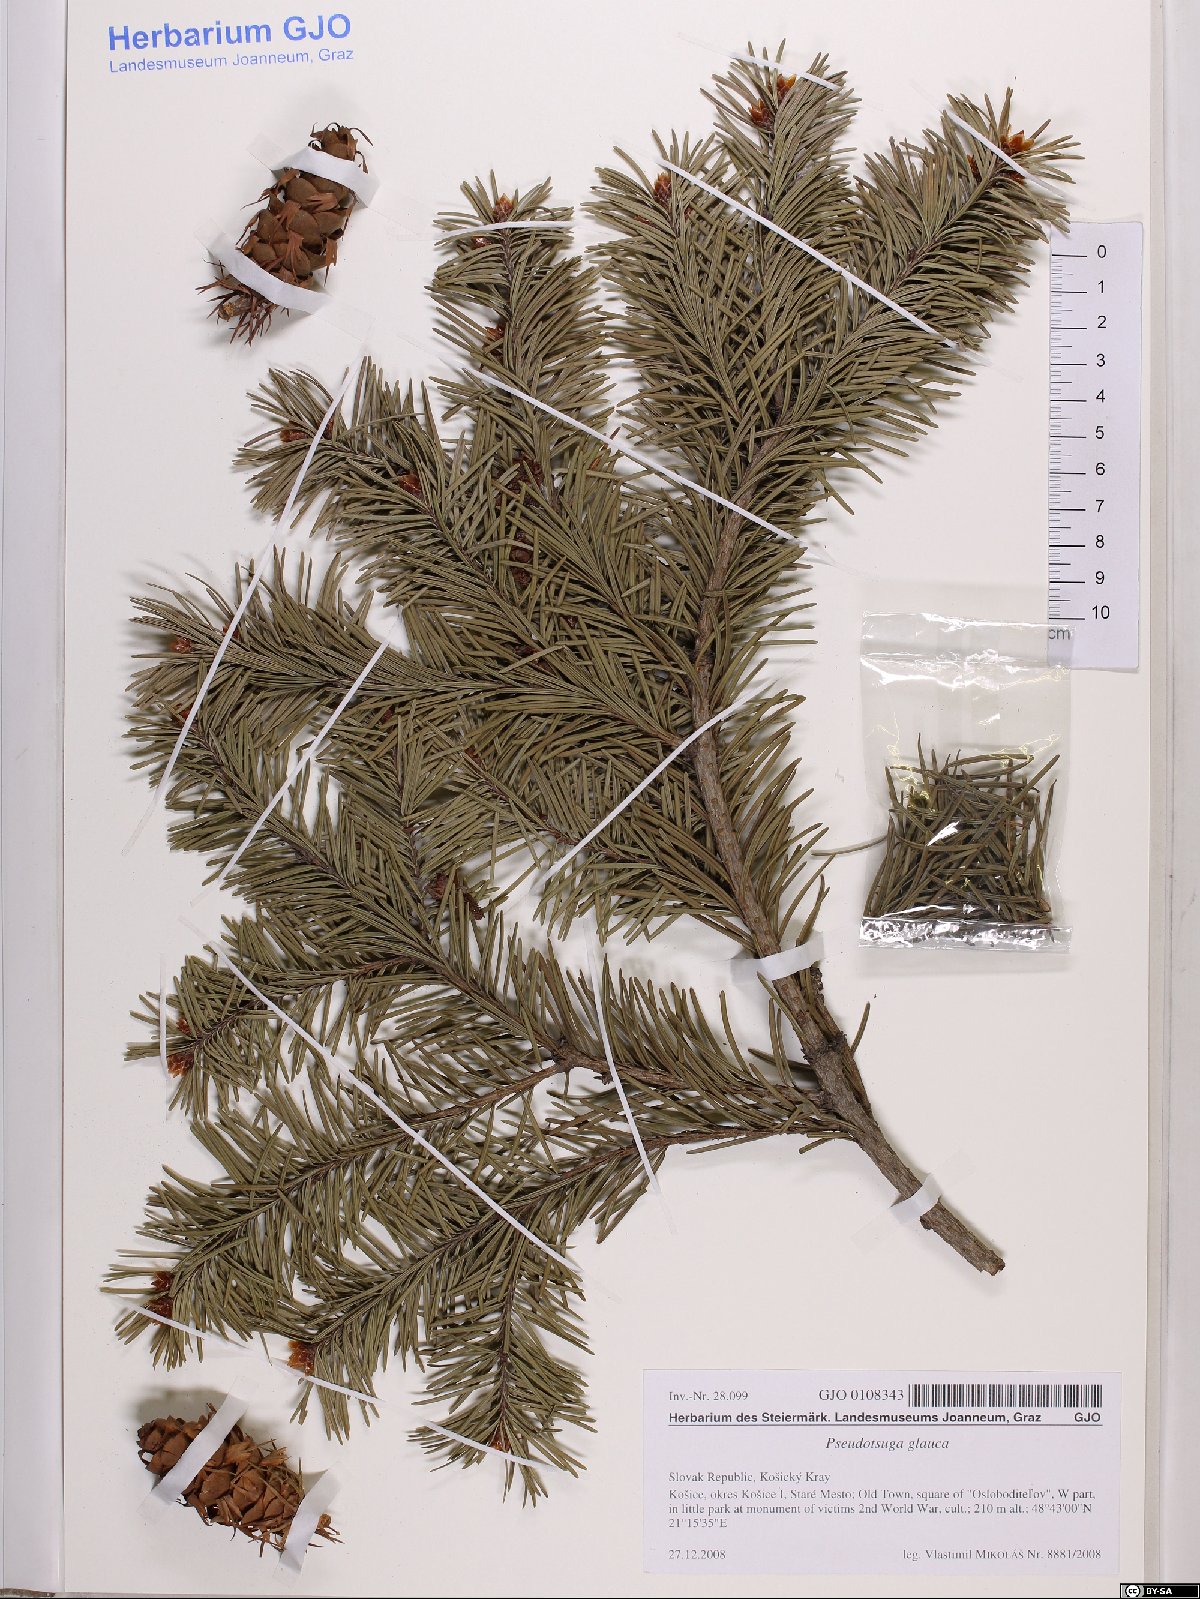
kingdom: Plantae
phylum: Tracheophyta
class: Pinopsida
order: Pinales
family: Pinaceae
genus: Pseudotsuga
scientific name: Pseudotsuga menziesii
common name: Douglas fir
